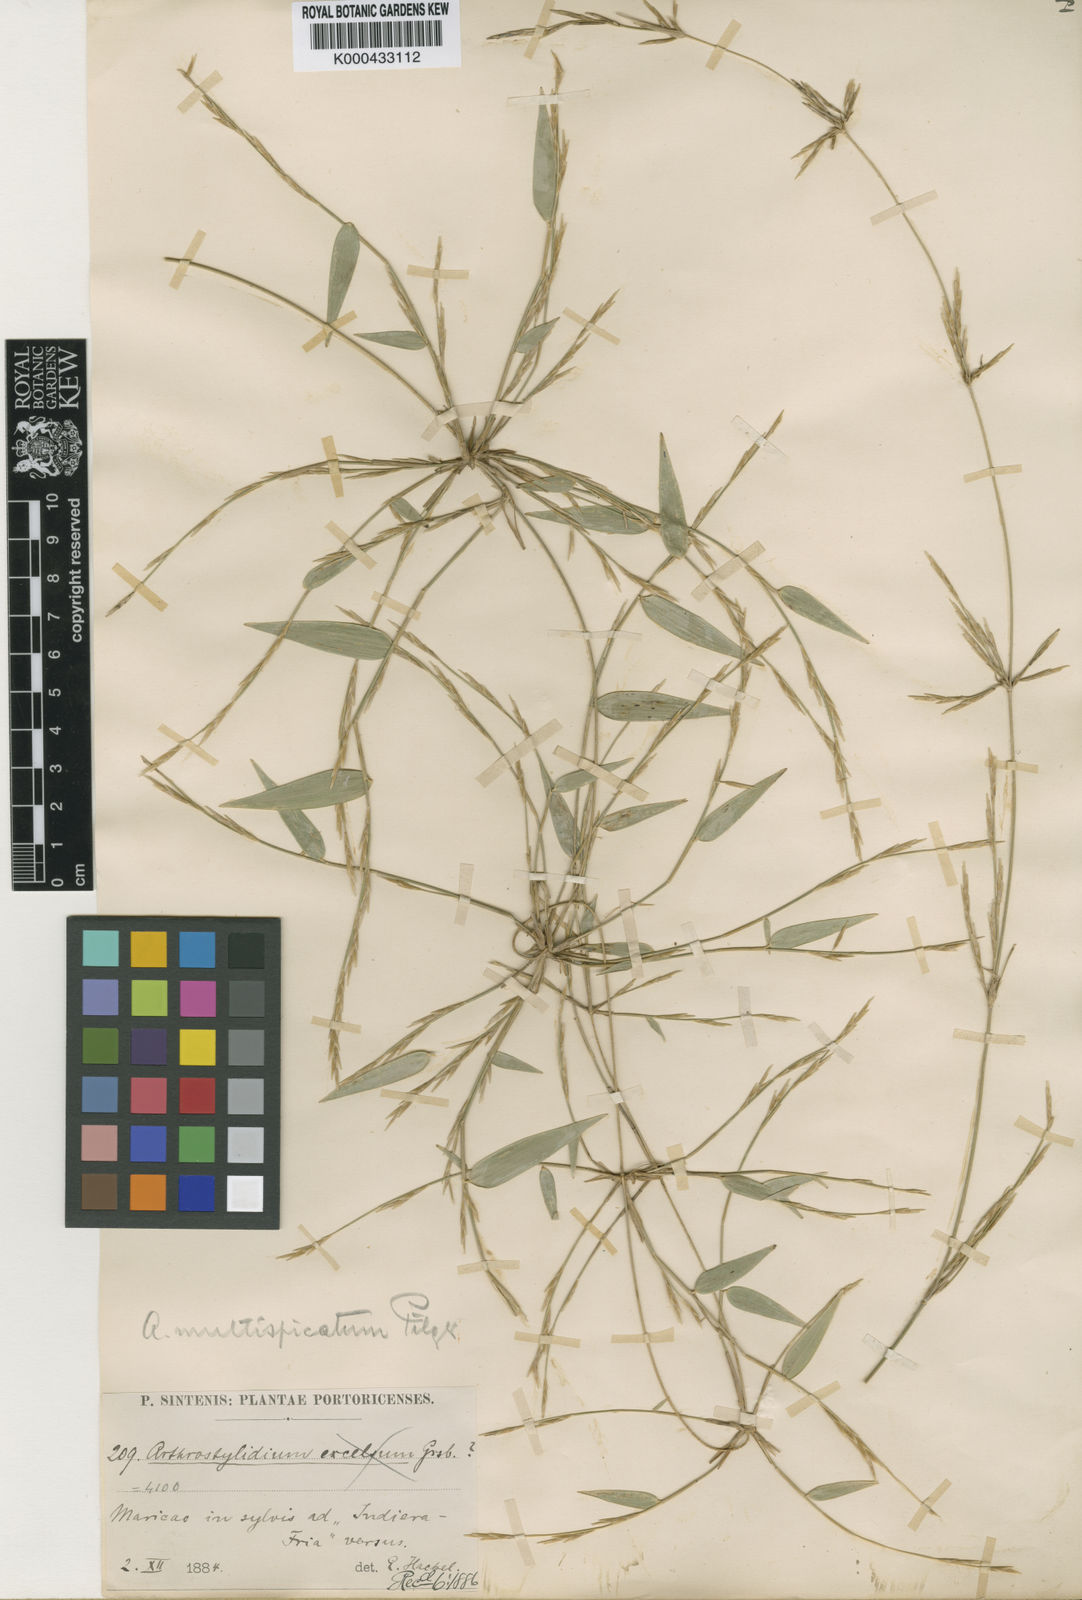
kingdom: Plantae
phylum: Tracheophyta
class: Liliopsida
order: Poales
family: Poaceae
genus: Arthrostylidium
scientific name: Arthrostylidium multispicatum
